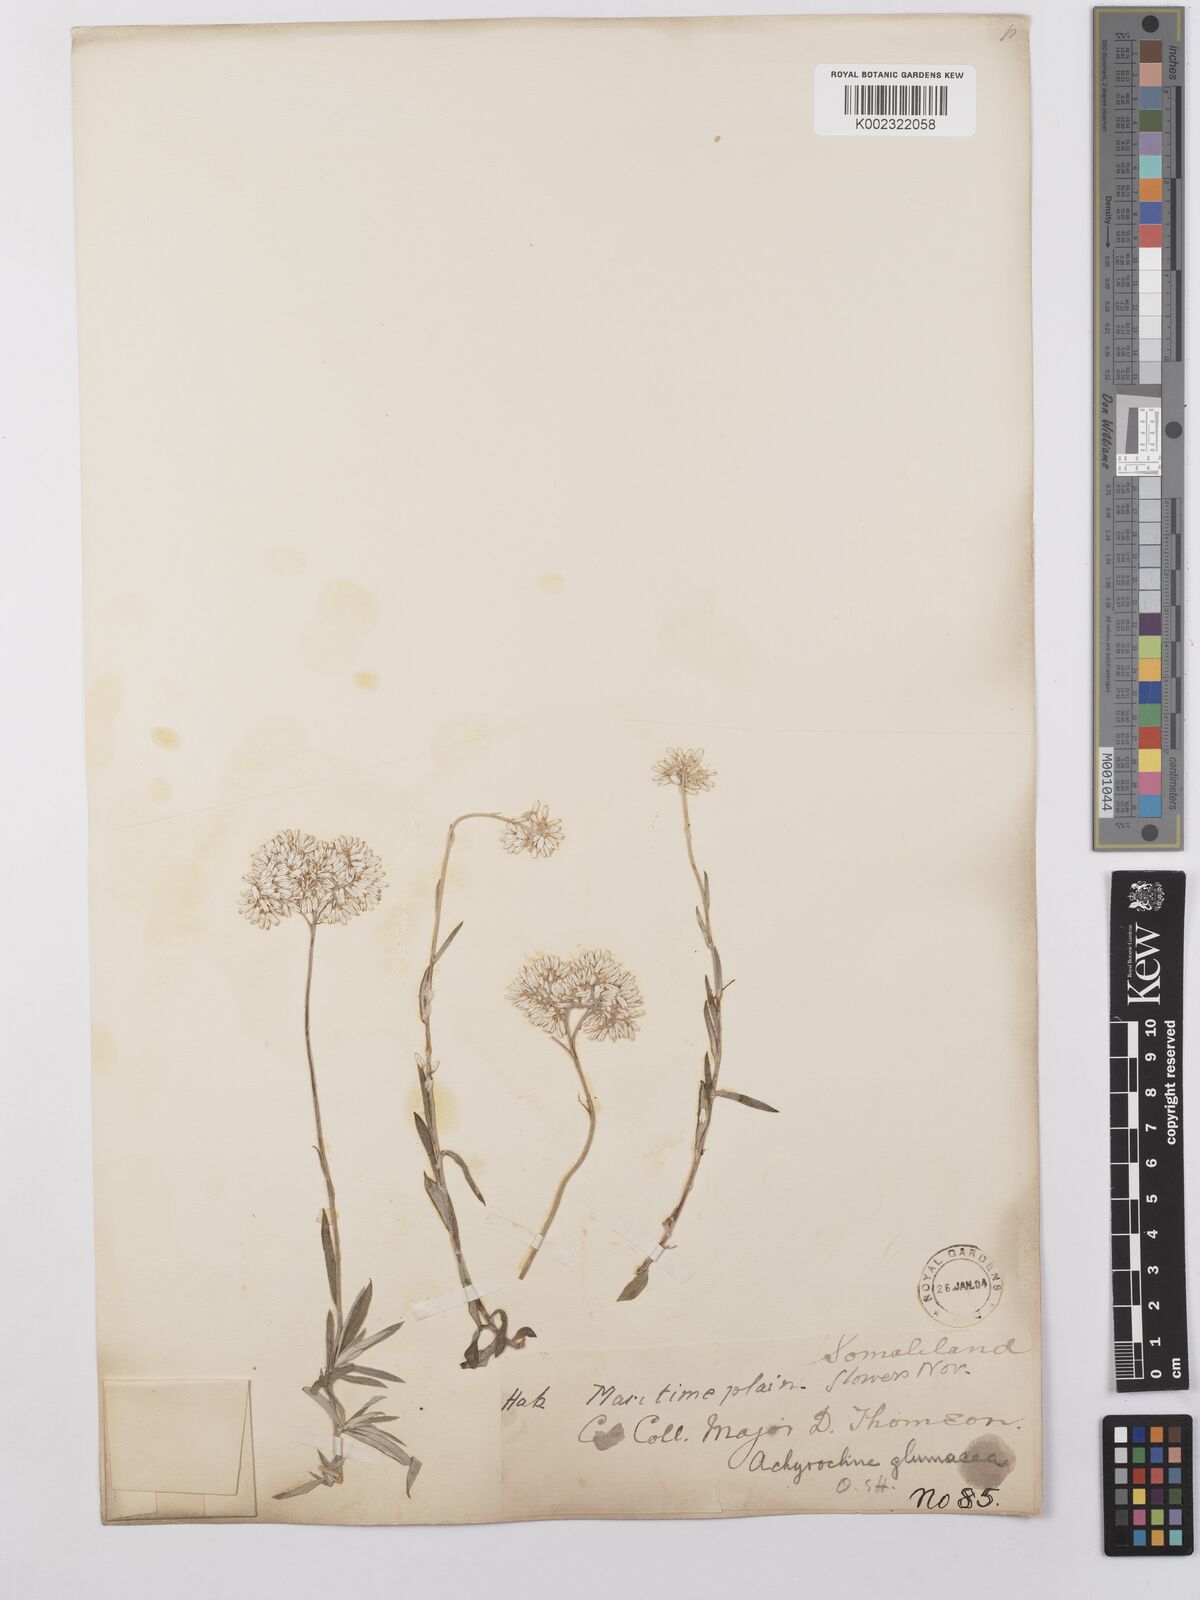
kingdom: Plantae
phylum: Tracheophyta
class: Magnoliopsida
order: Asterales
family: Asteraceae
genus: Helichrysum
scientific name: Helichrysum glumaceum
